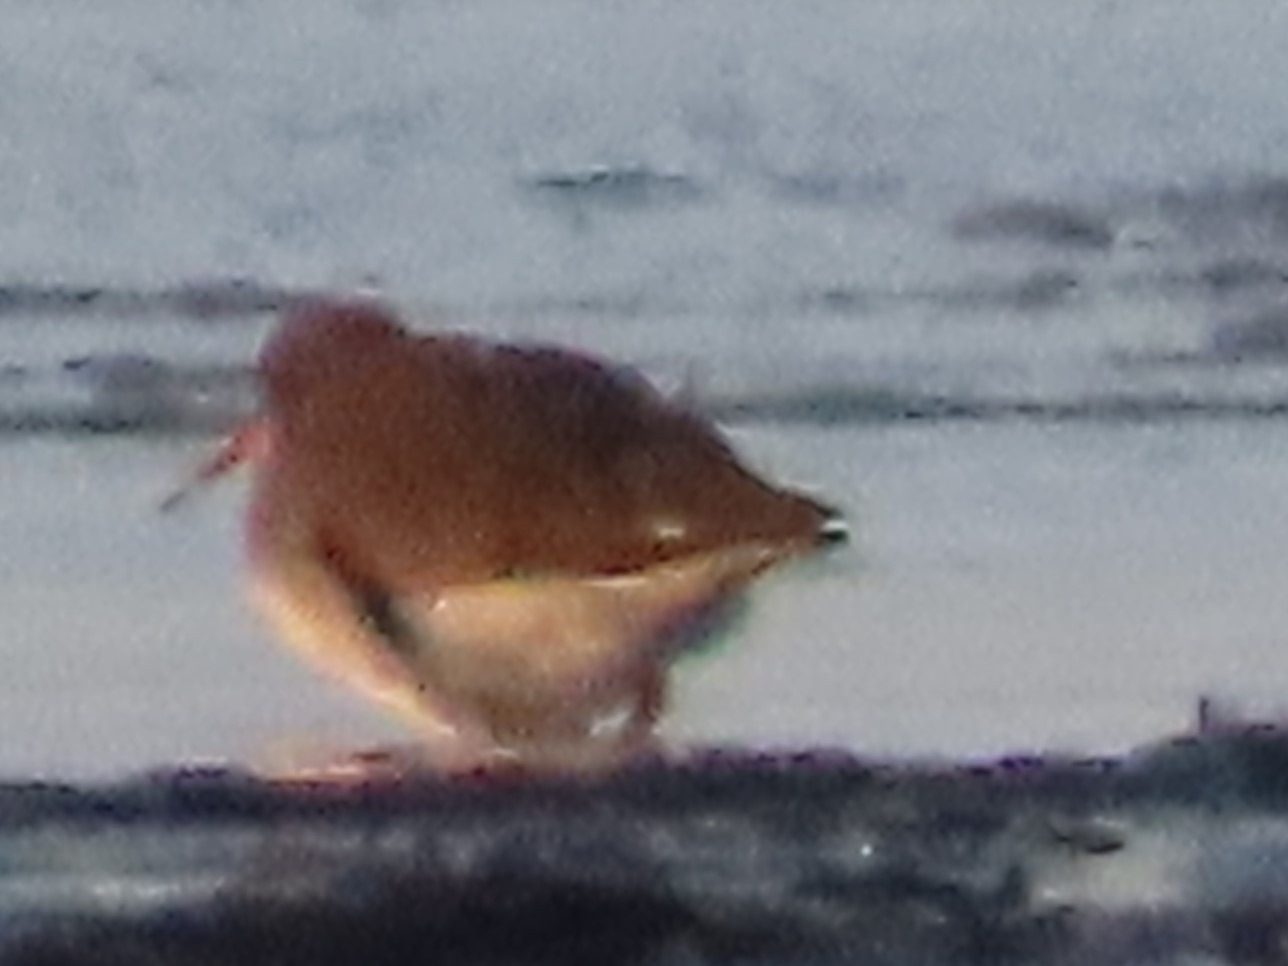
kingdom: Animalia
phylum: Chordata
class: Aves
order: Charadriiformes
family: Scolopacidae
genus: Tringa
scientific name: Tringa totanus
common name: Rødben
